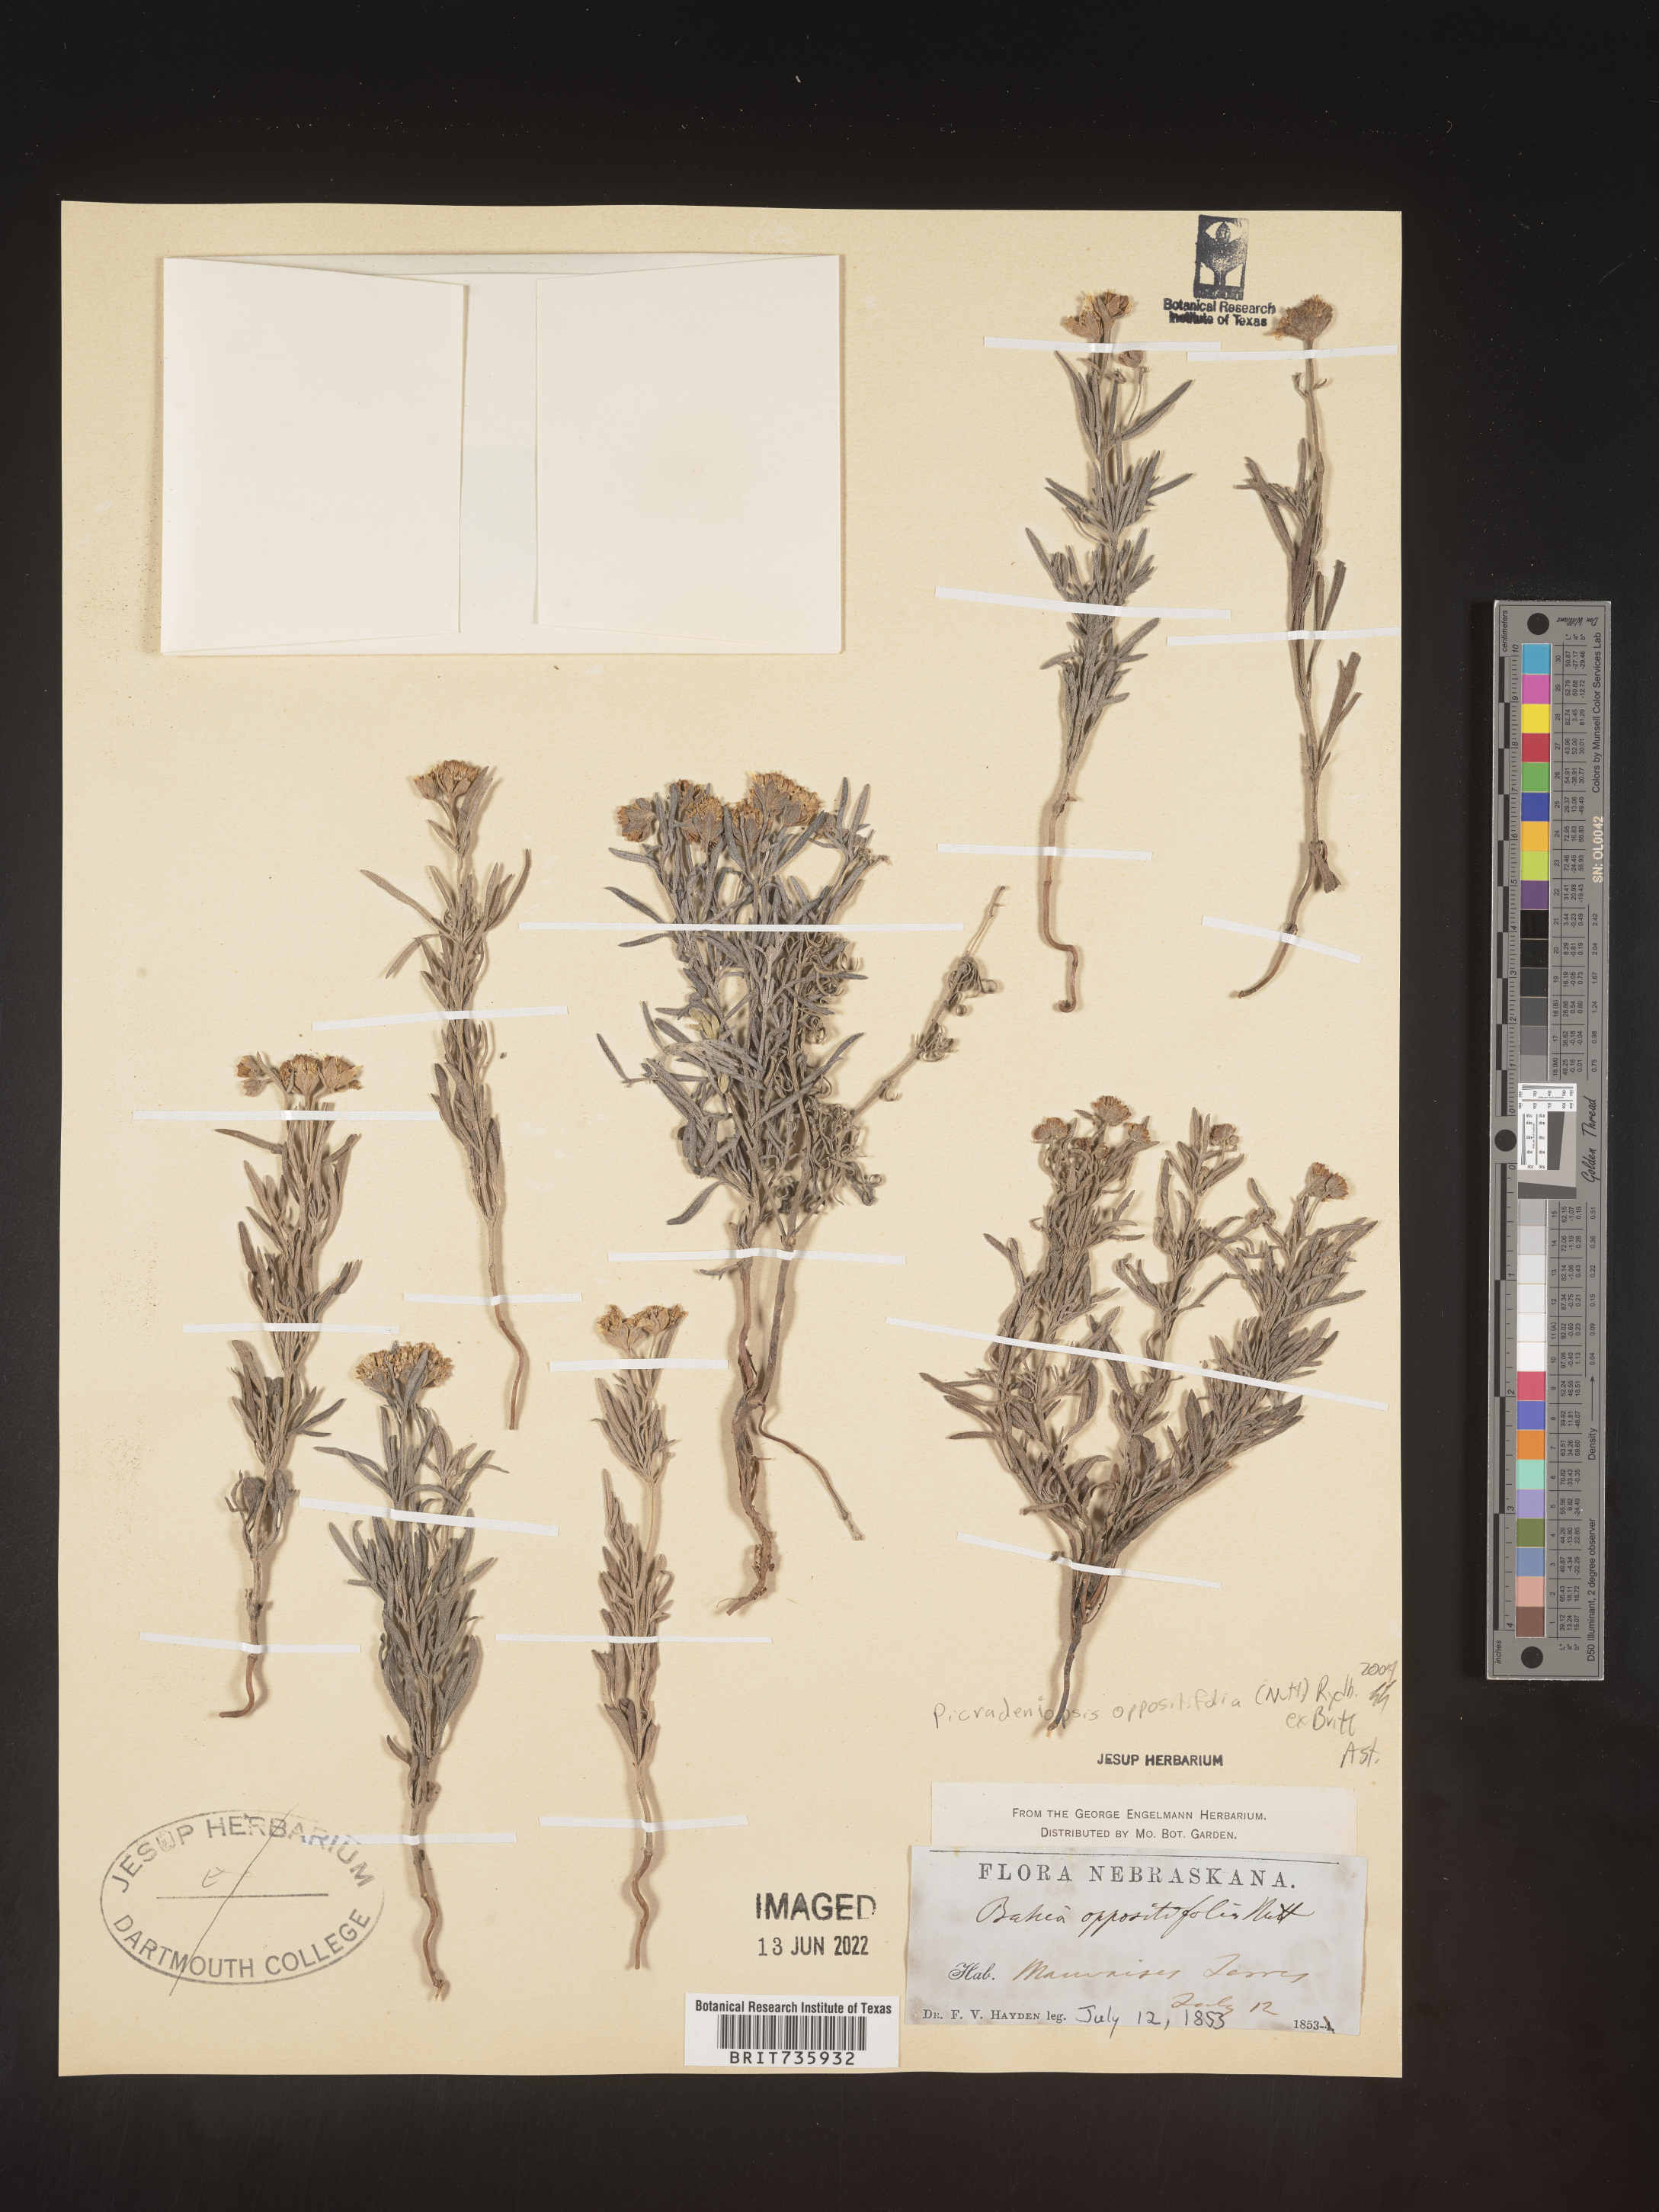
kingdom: Plantae
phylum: Tracheophyta
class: Magnoliopsida
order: Asterales
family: Asteraceae
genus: Bahia
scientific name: Bahia oppositifolia
